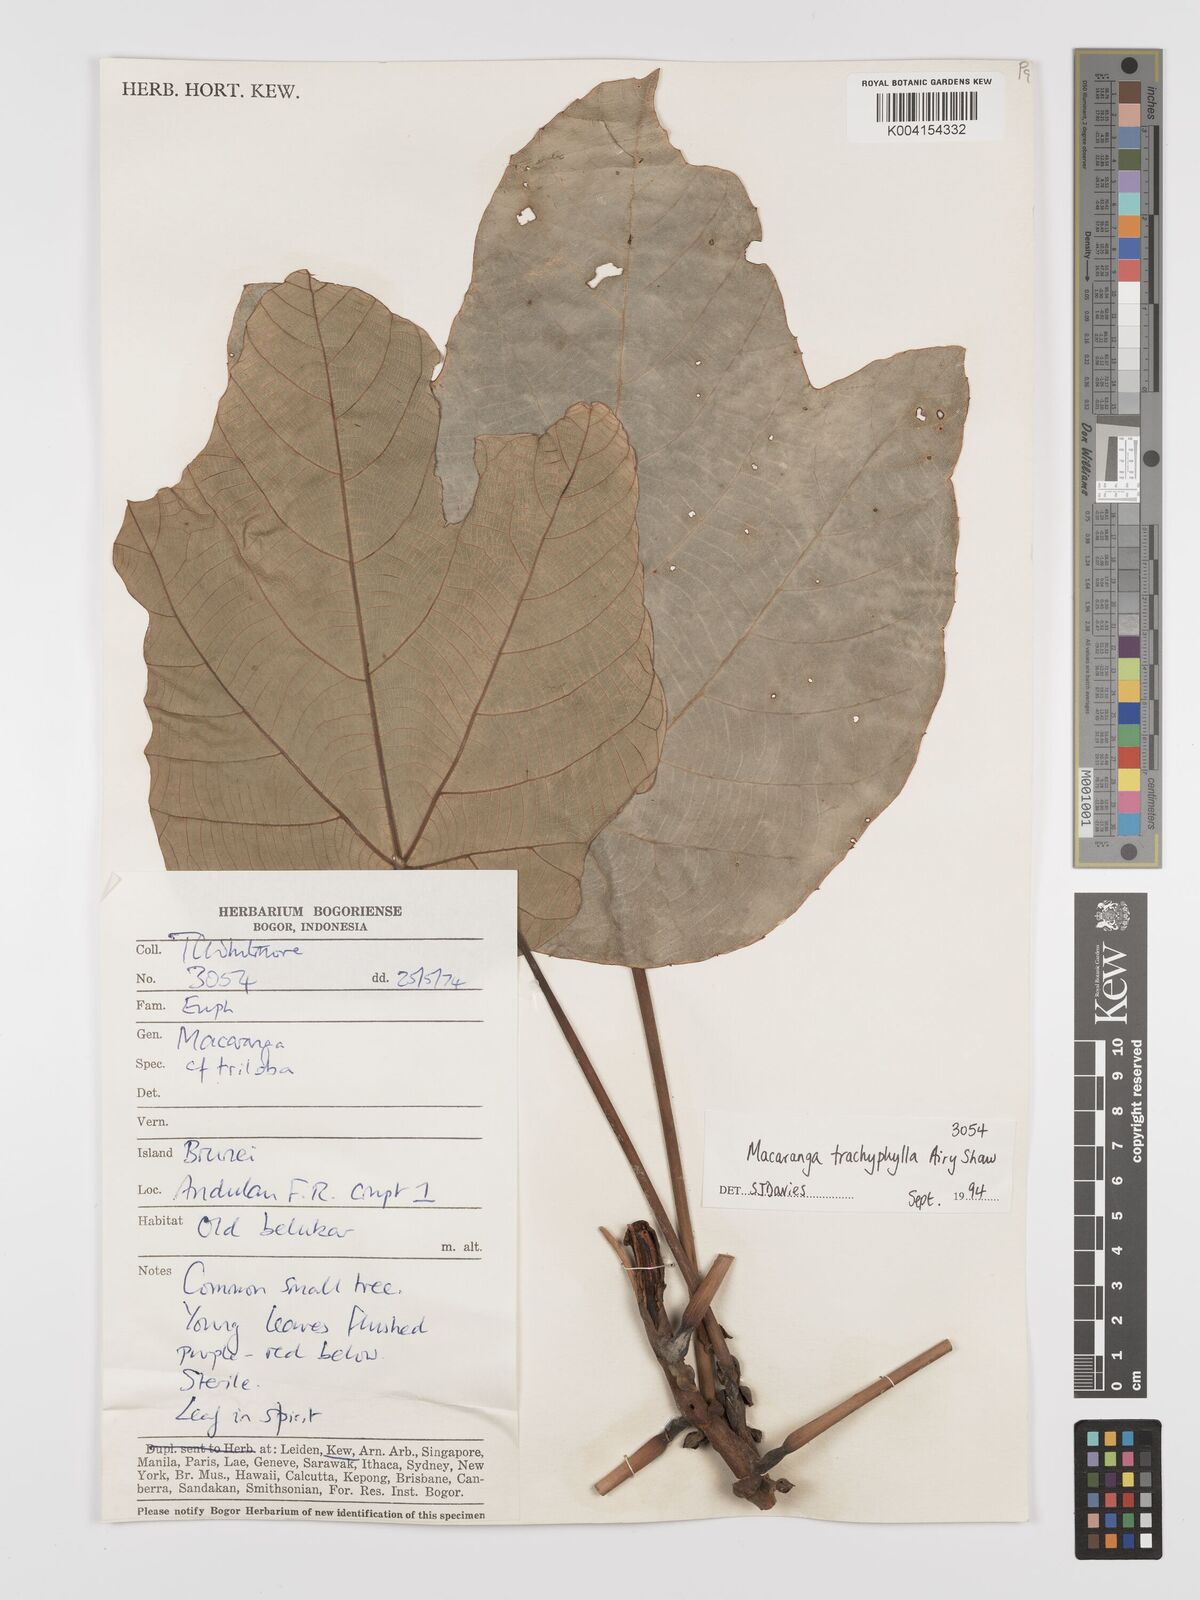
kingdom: Plantae
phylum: Tracheophyta
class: Magnoliopsida
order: Malpighiales
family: Euphorbiaceae
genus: Macaranga
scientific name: Macaranga trachyphylla
